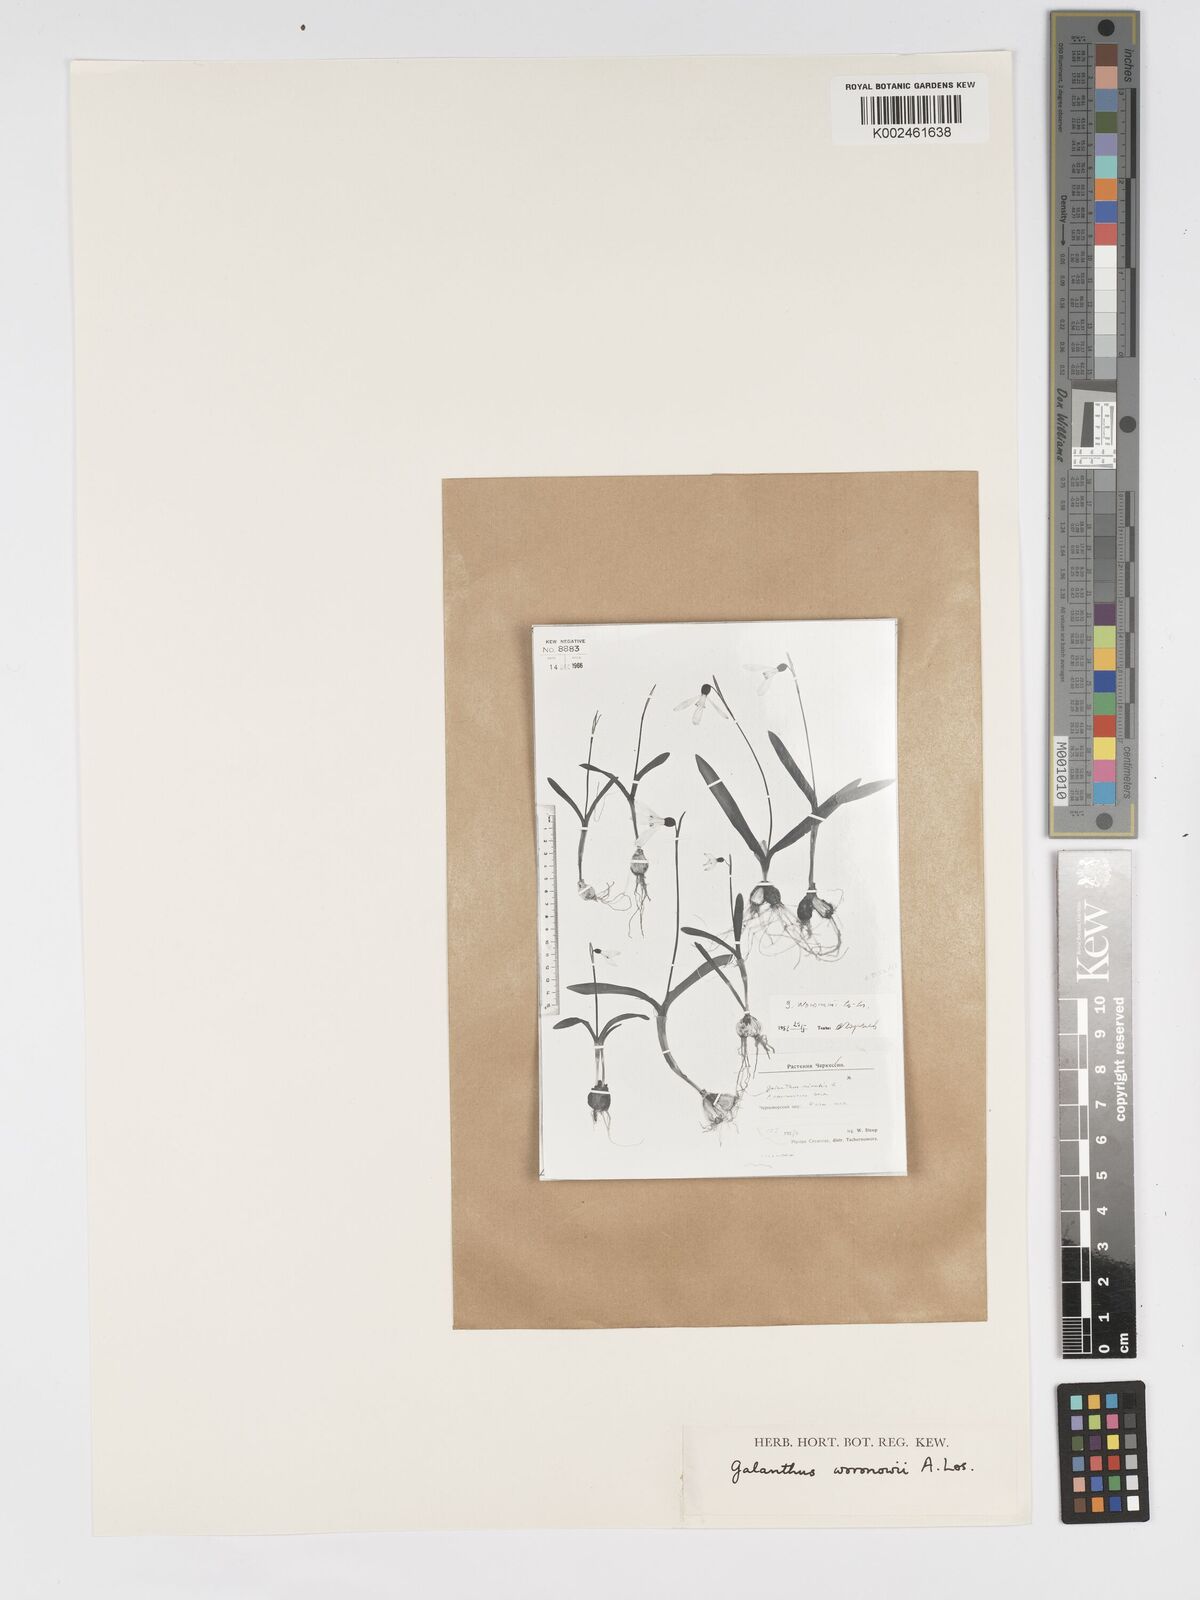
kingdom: Plantae
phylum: Tracheophyta
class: Liliopsida
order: Asparagales
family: Amaryllidaceae
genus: Galanthus
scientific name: Galanthus woronowii
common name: Green snowdrop
